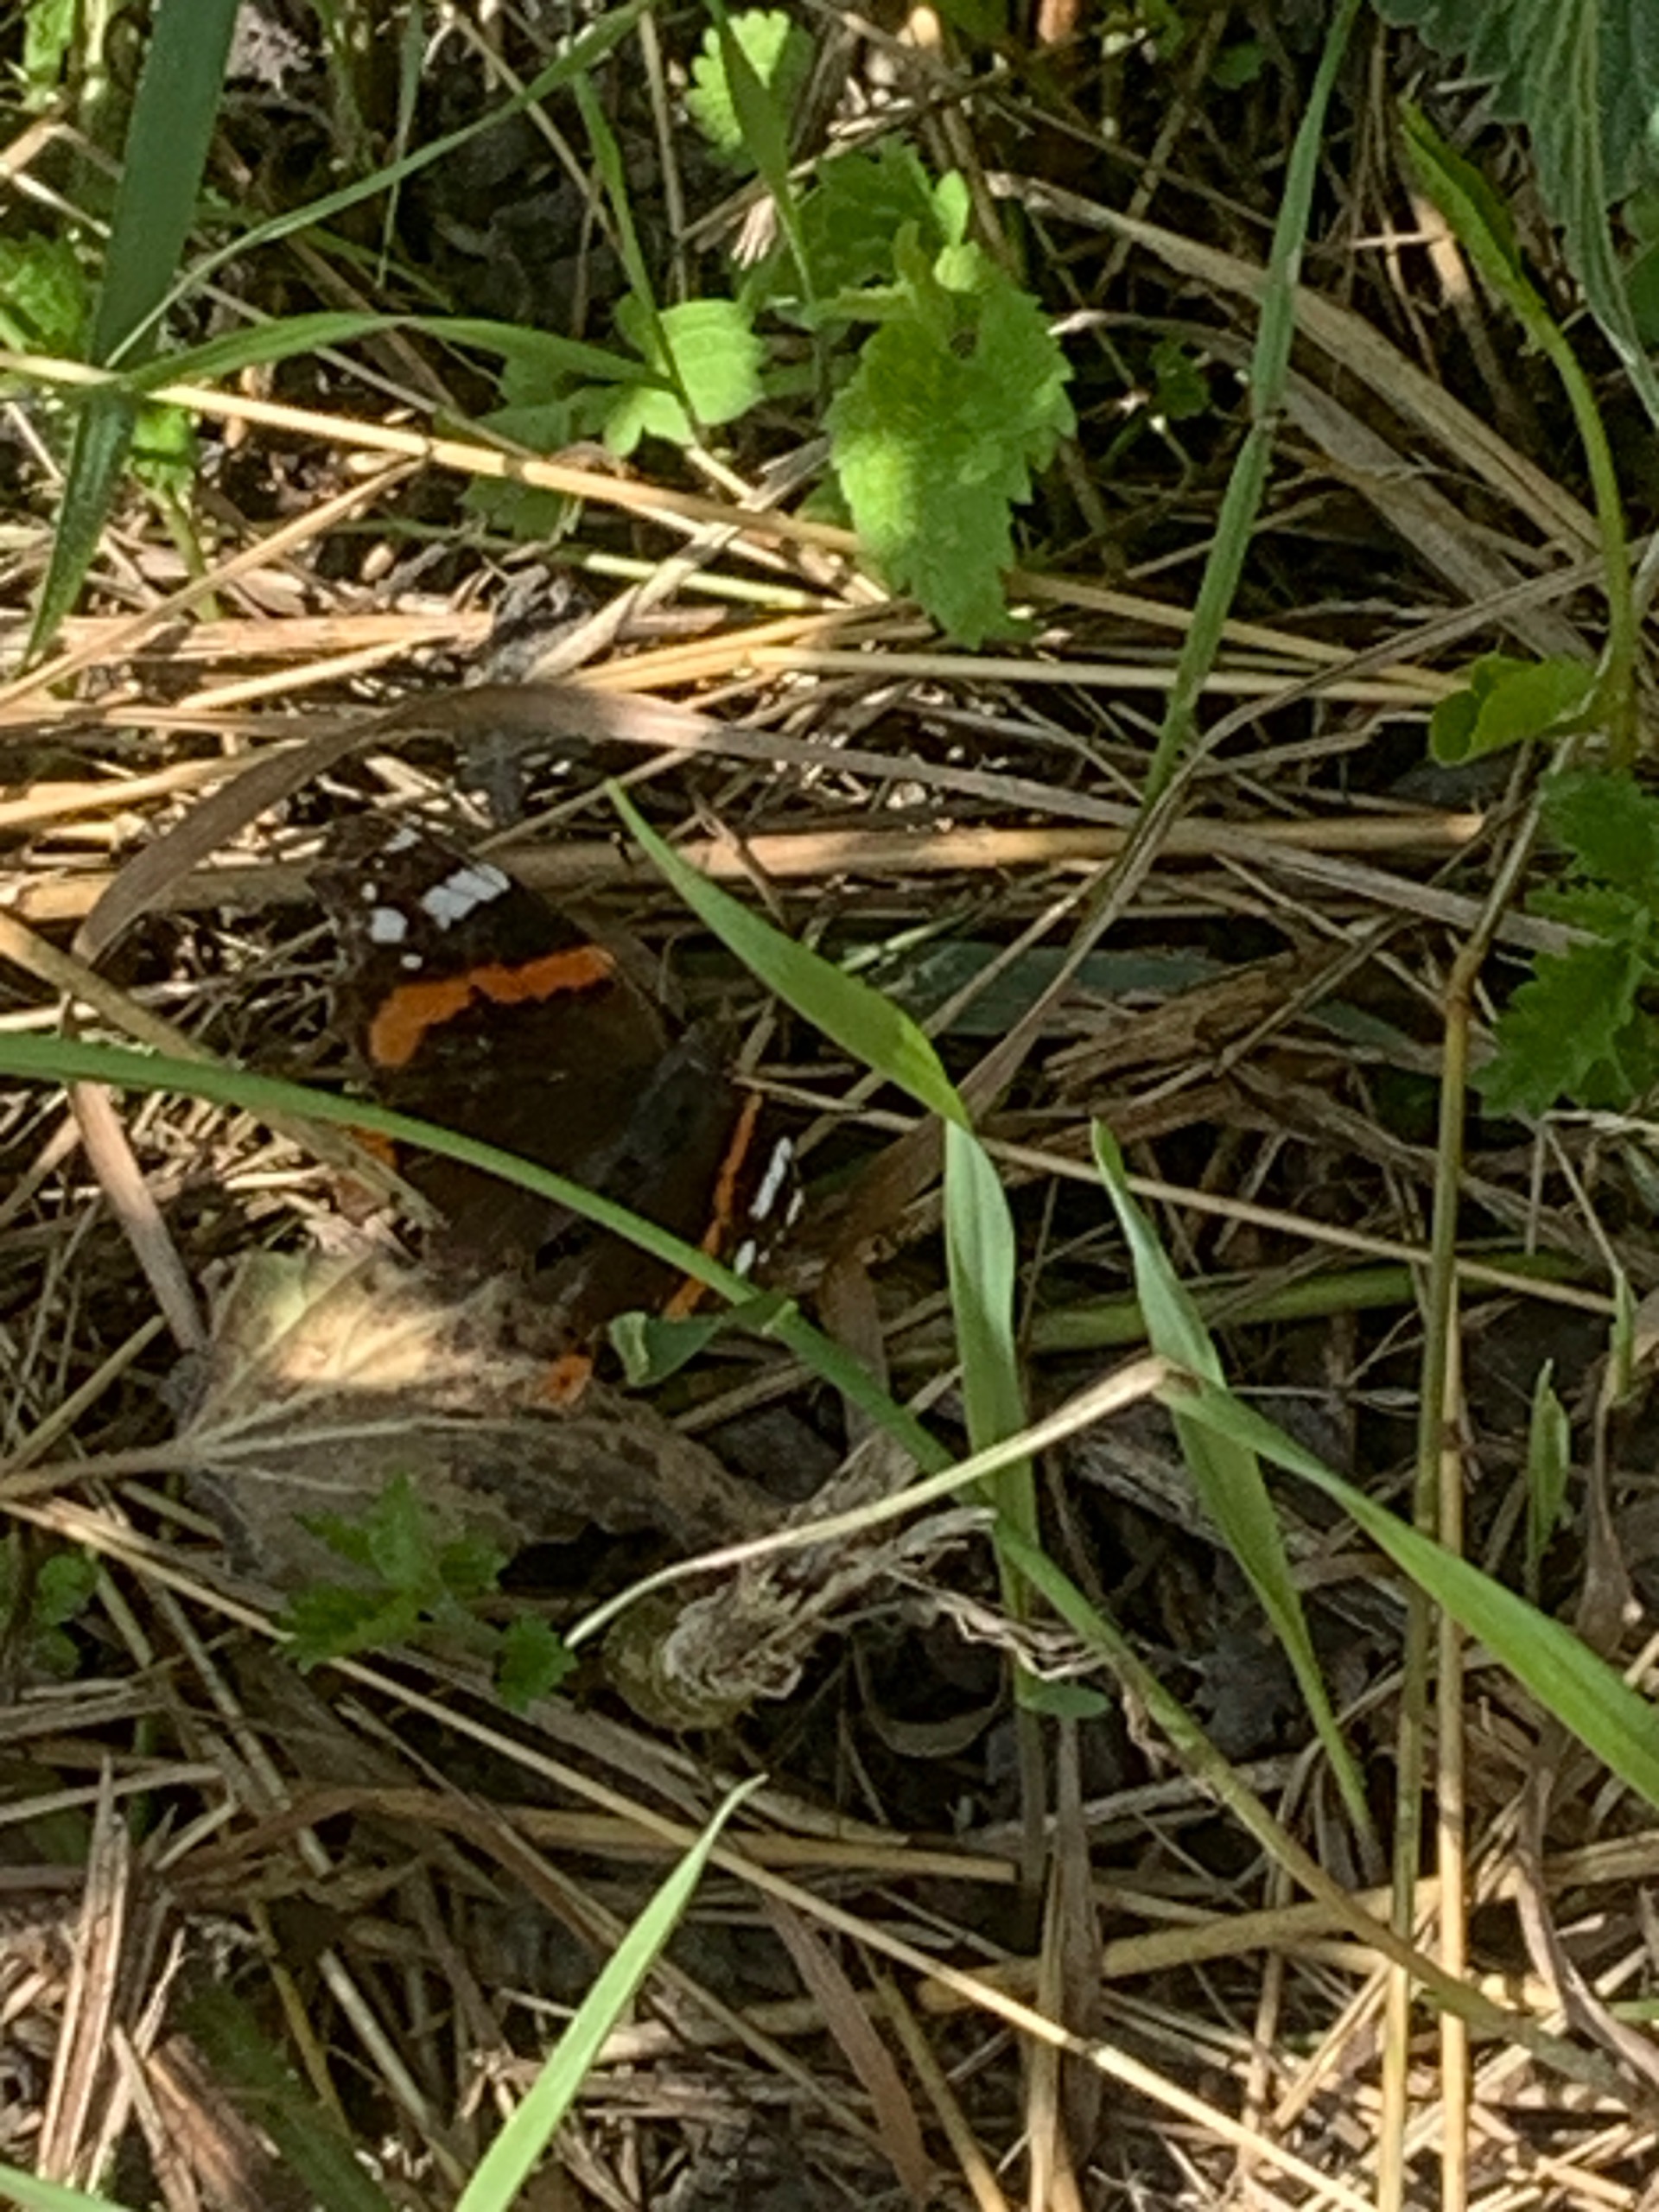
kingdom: Animalia
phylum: Arthropoda
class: Insecta
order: Lepidoptera
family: Nymphalidae
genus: Vanessa
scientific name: Vanessa atalanta
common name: Admiral
